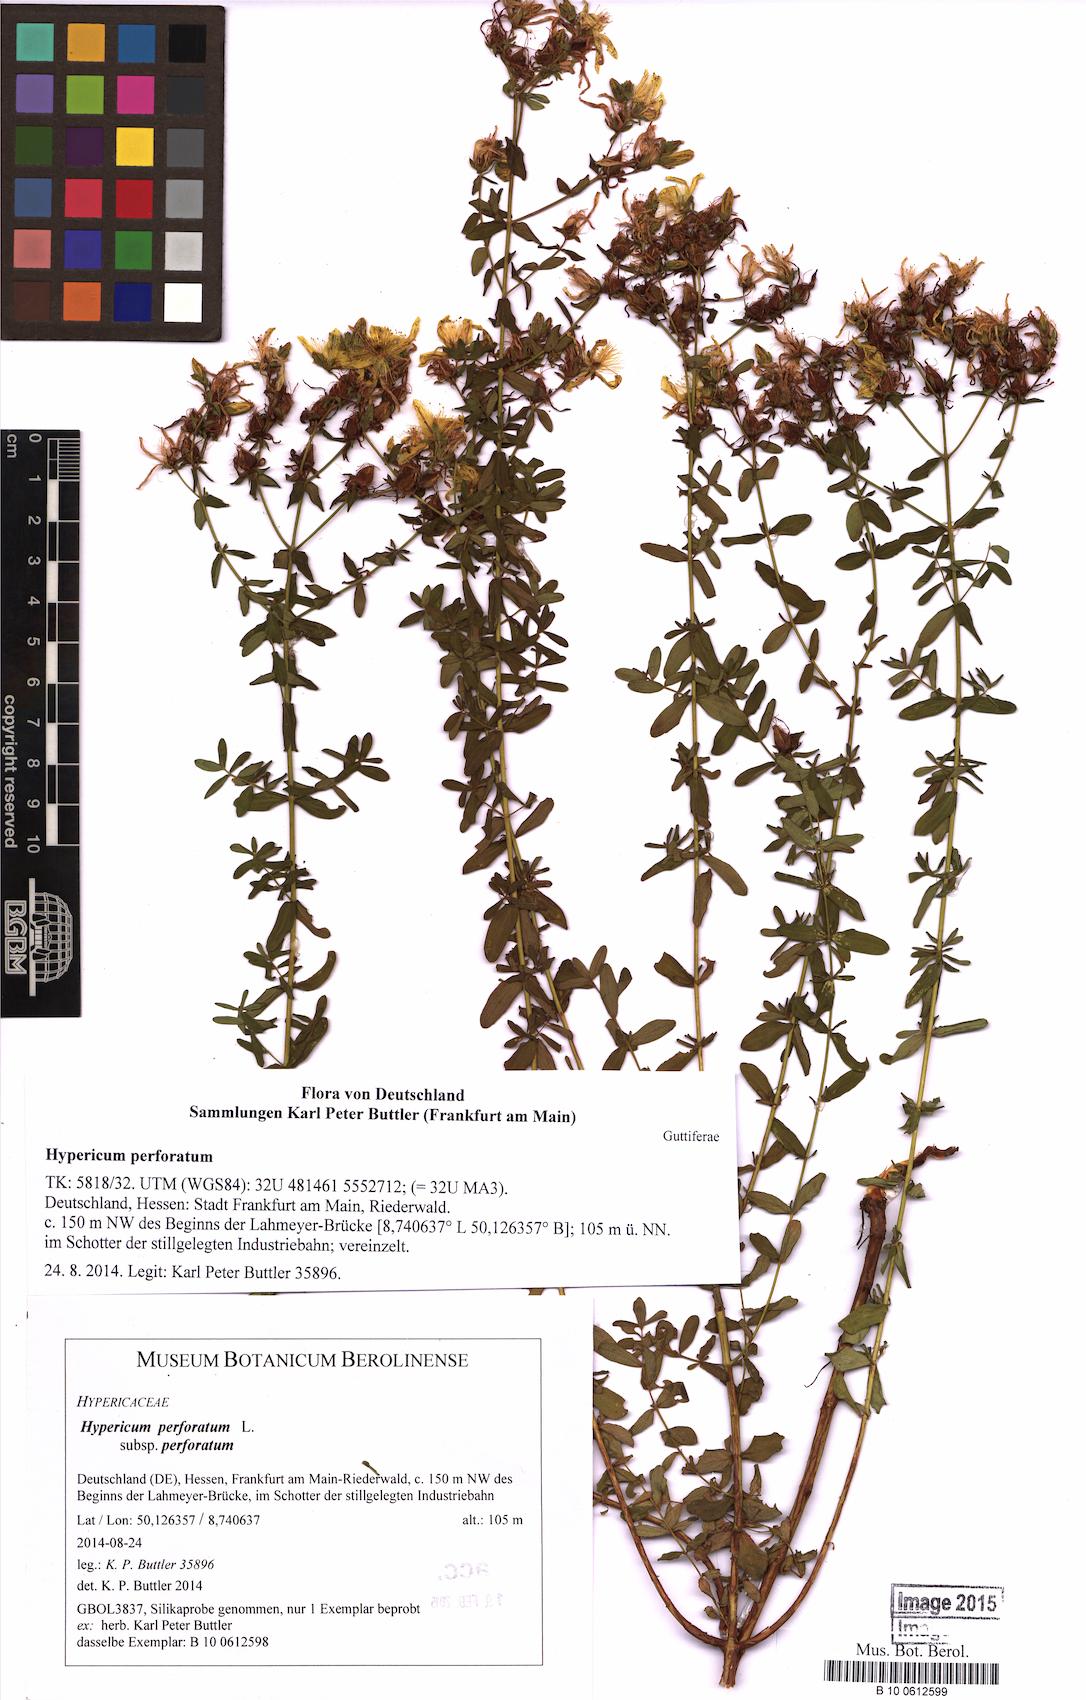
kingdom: Plantae
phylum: Tracheophyta
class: Magnoliopsida
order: Malpighiales
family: Hypericaceae
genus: Hypericum
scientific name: Hypericum perforatum
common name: Common st. johnswort
